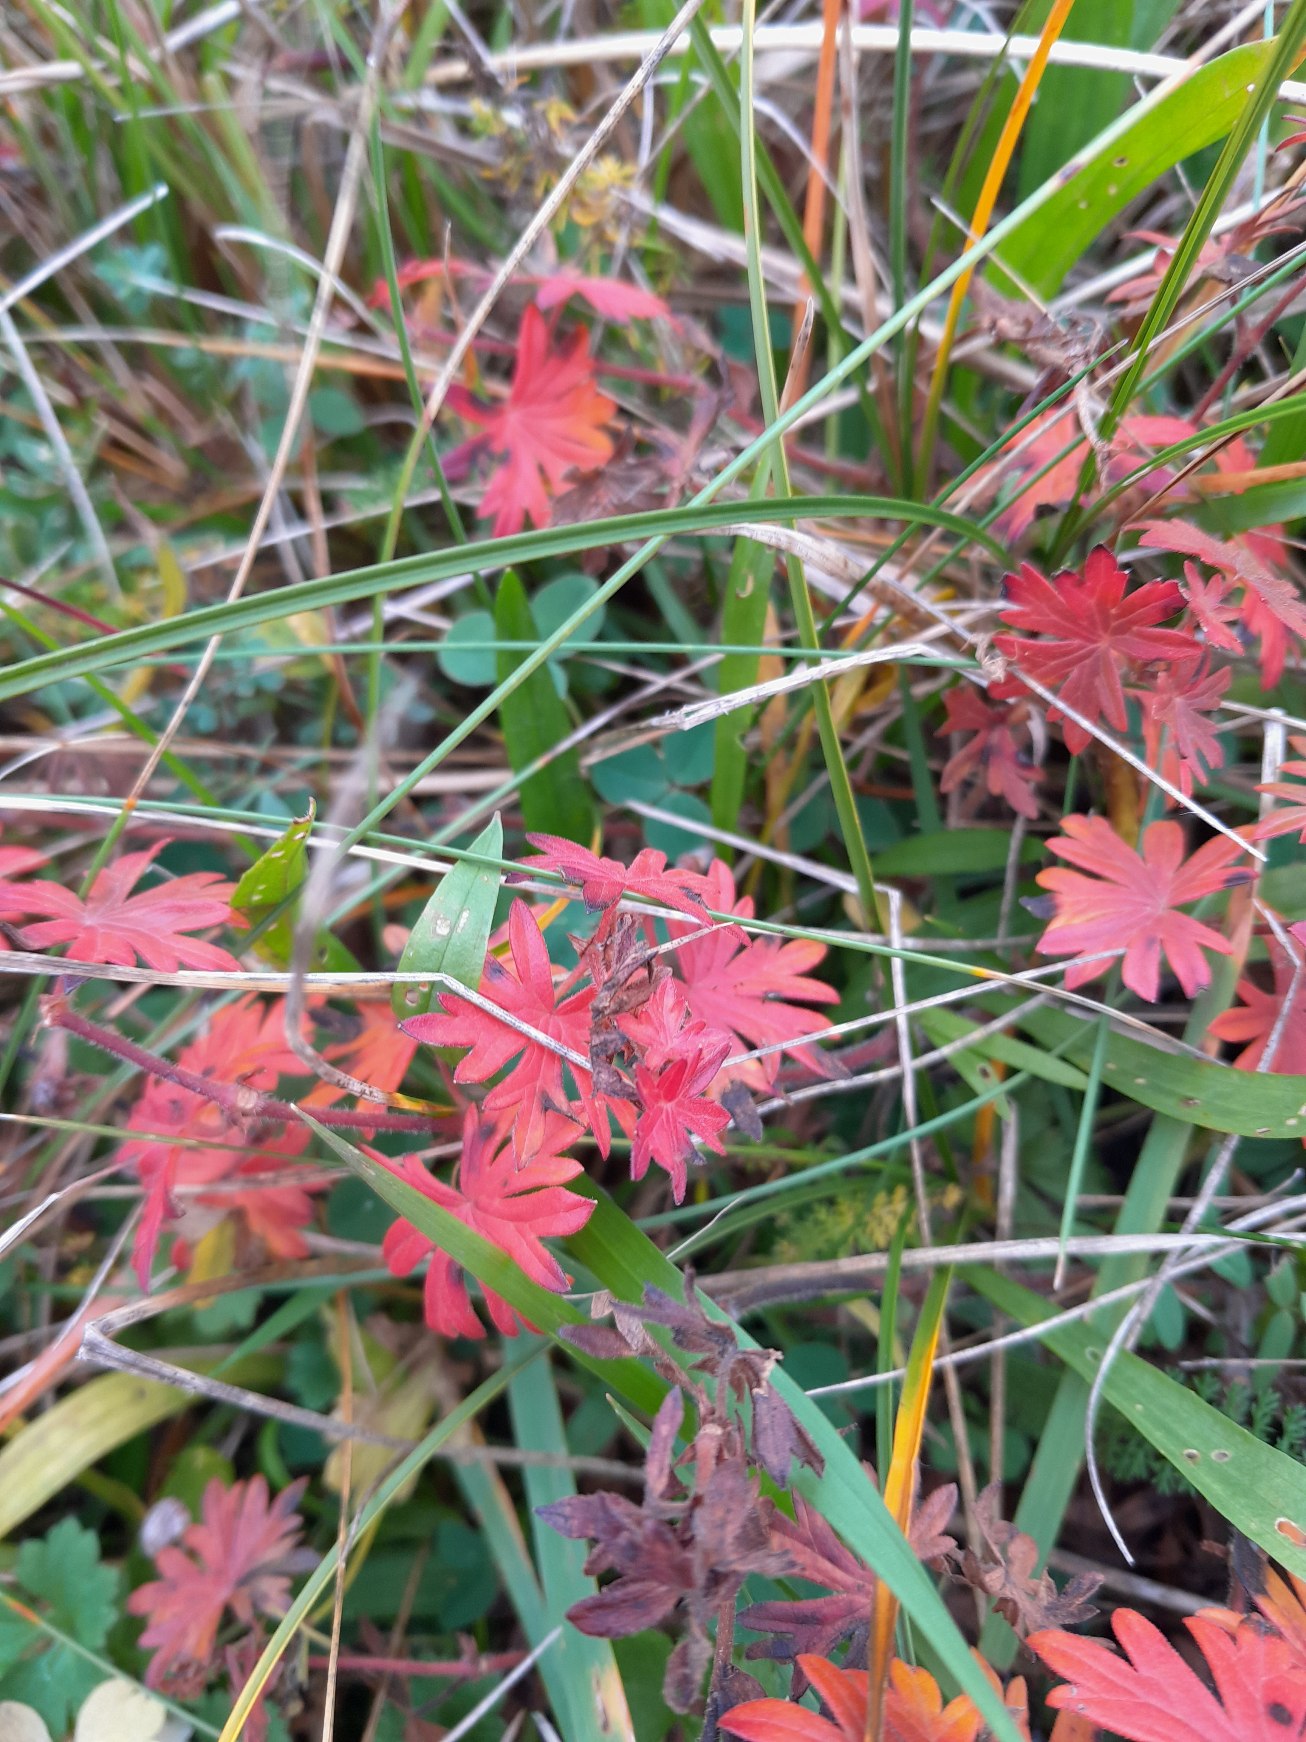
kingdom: Plantae
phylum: Tracheophyta
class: Magnoliopsida
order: Geraniales
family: Geraniaceae
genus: Geranium
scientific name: Geranium sanguineum
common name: Blodrød storkenæb
